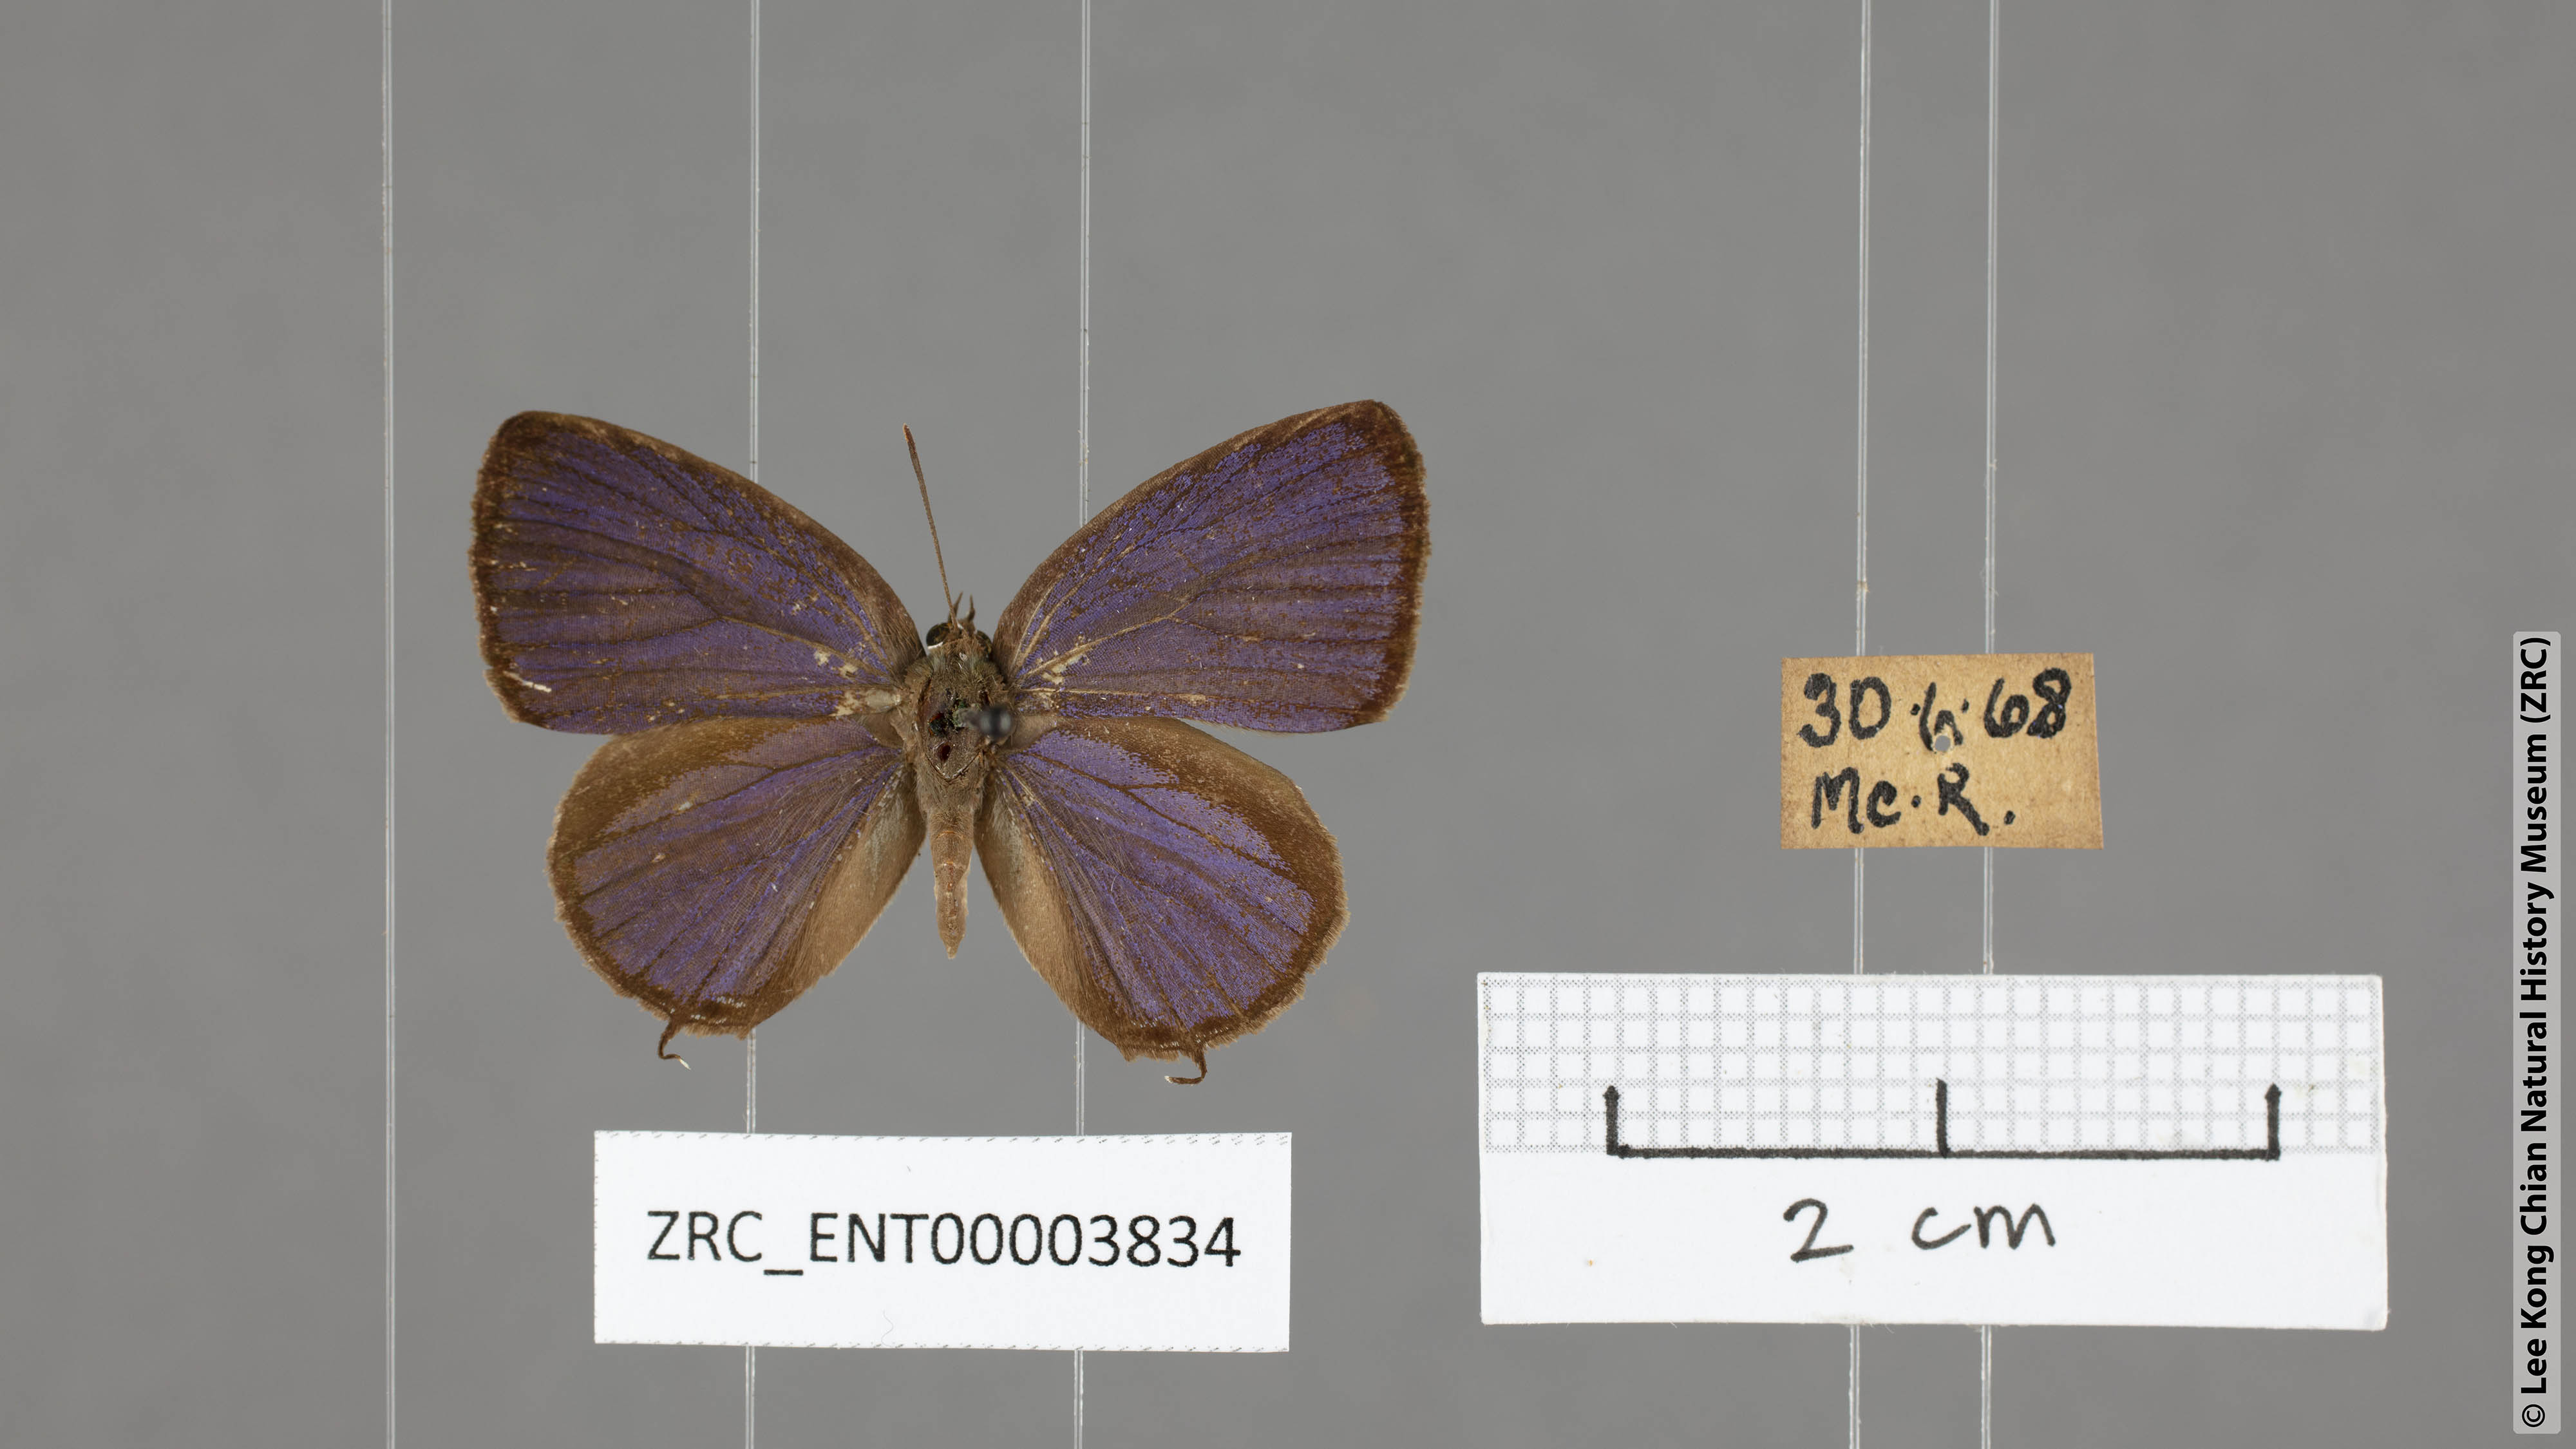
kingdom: Animalia
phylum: Arthropoda
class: Insecta
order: Lepidoptera
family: Lycaenidae
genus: Arhopala
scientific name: Arhopala ammon
